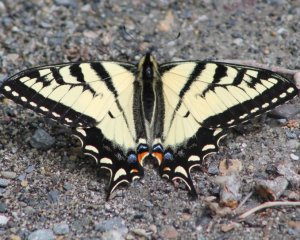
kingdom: Animalia
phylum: Arthropoda
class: Insecta
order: Lepidoptera
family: Papilionidae
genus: Pterourus
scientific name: Pterourus canadensis
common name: Canadian Tiger Swallowtail
